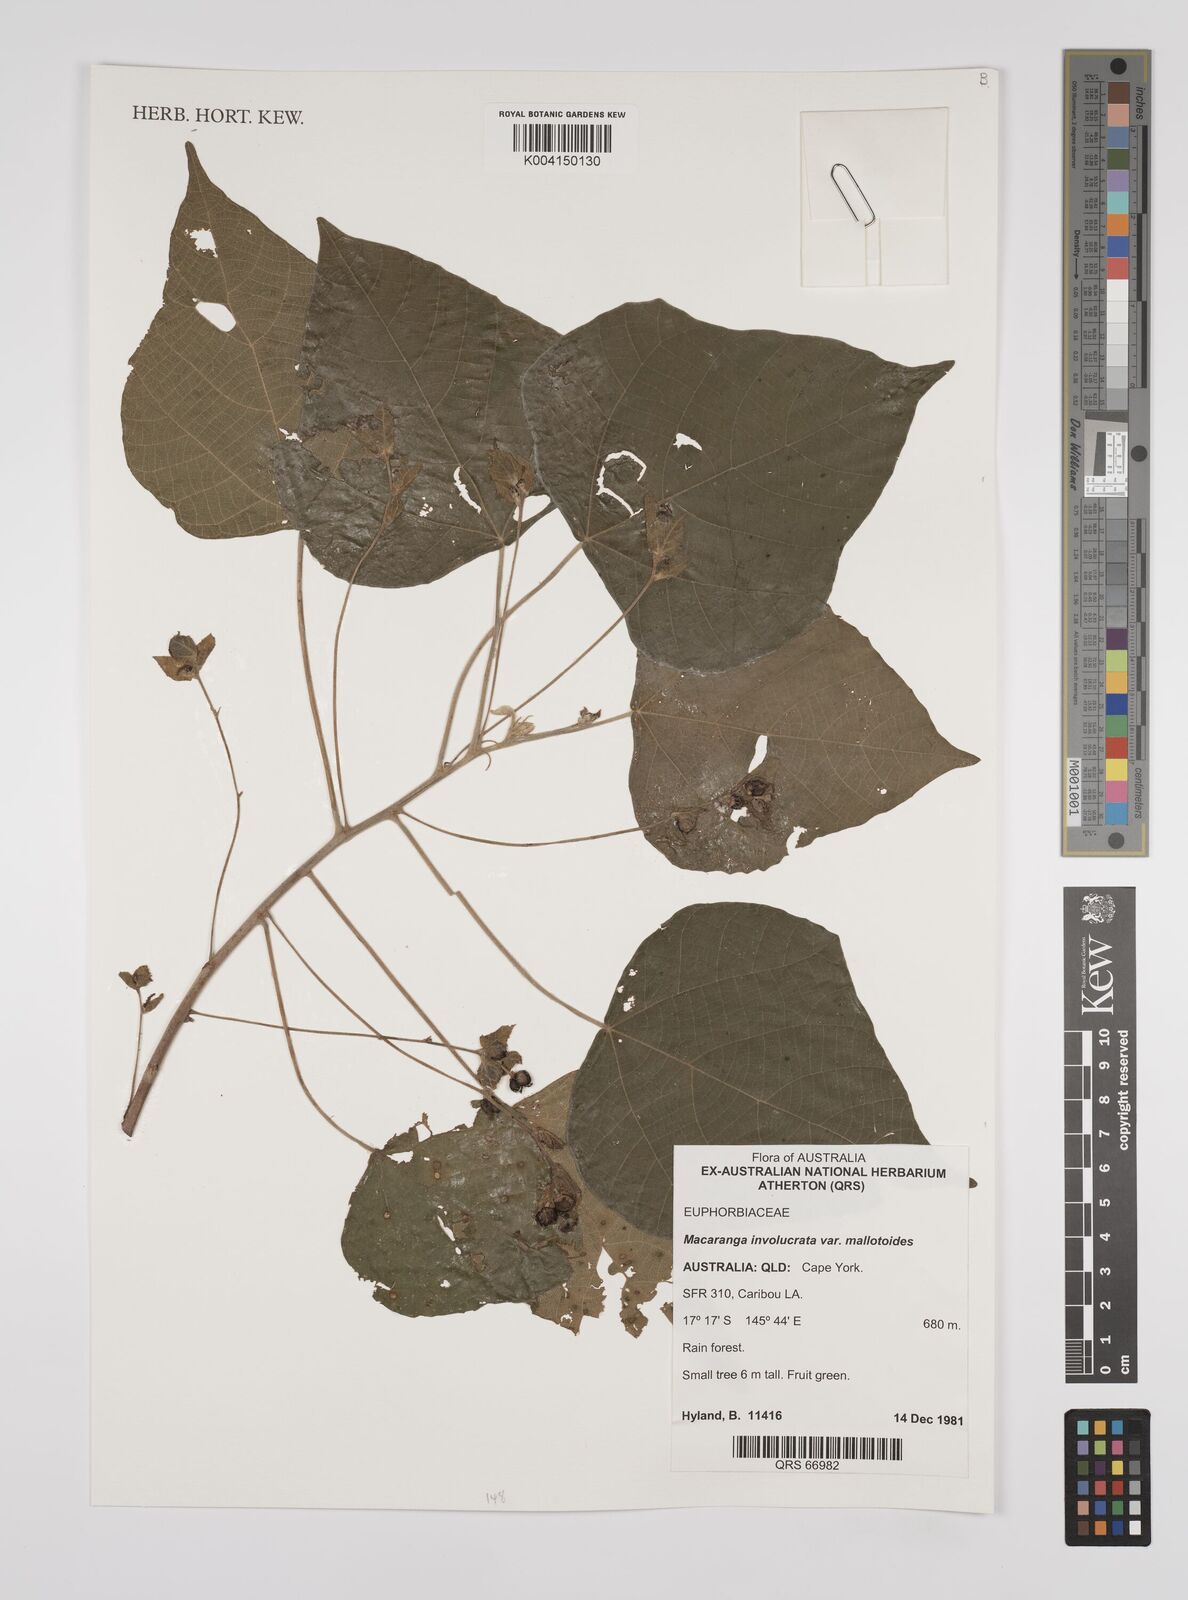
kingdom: Plantae
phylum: Tracheophyta
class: Magnoliopsida
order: Malpighiales
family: Euphorbiaceae
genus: Macaranga
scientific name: Macaranga involucrata
